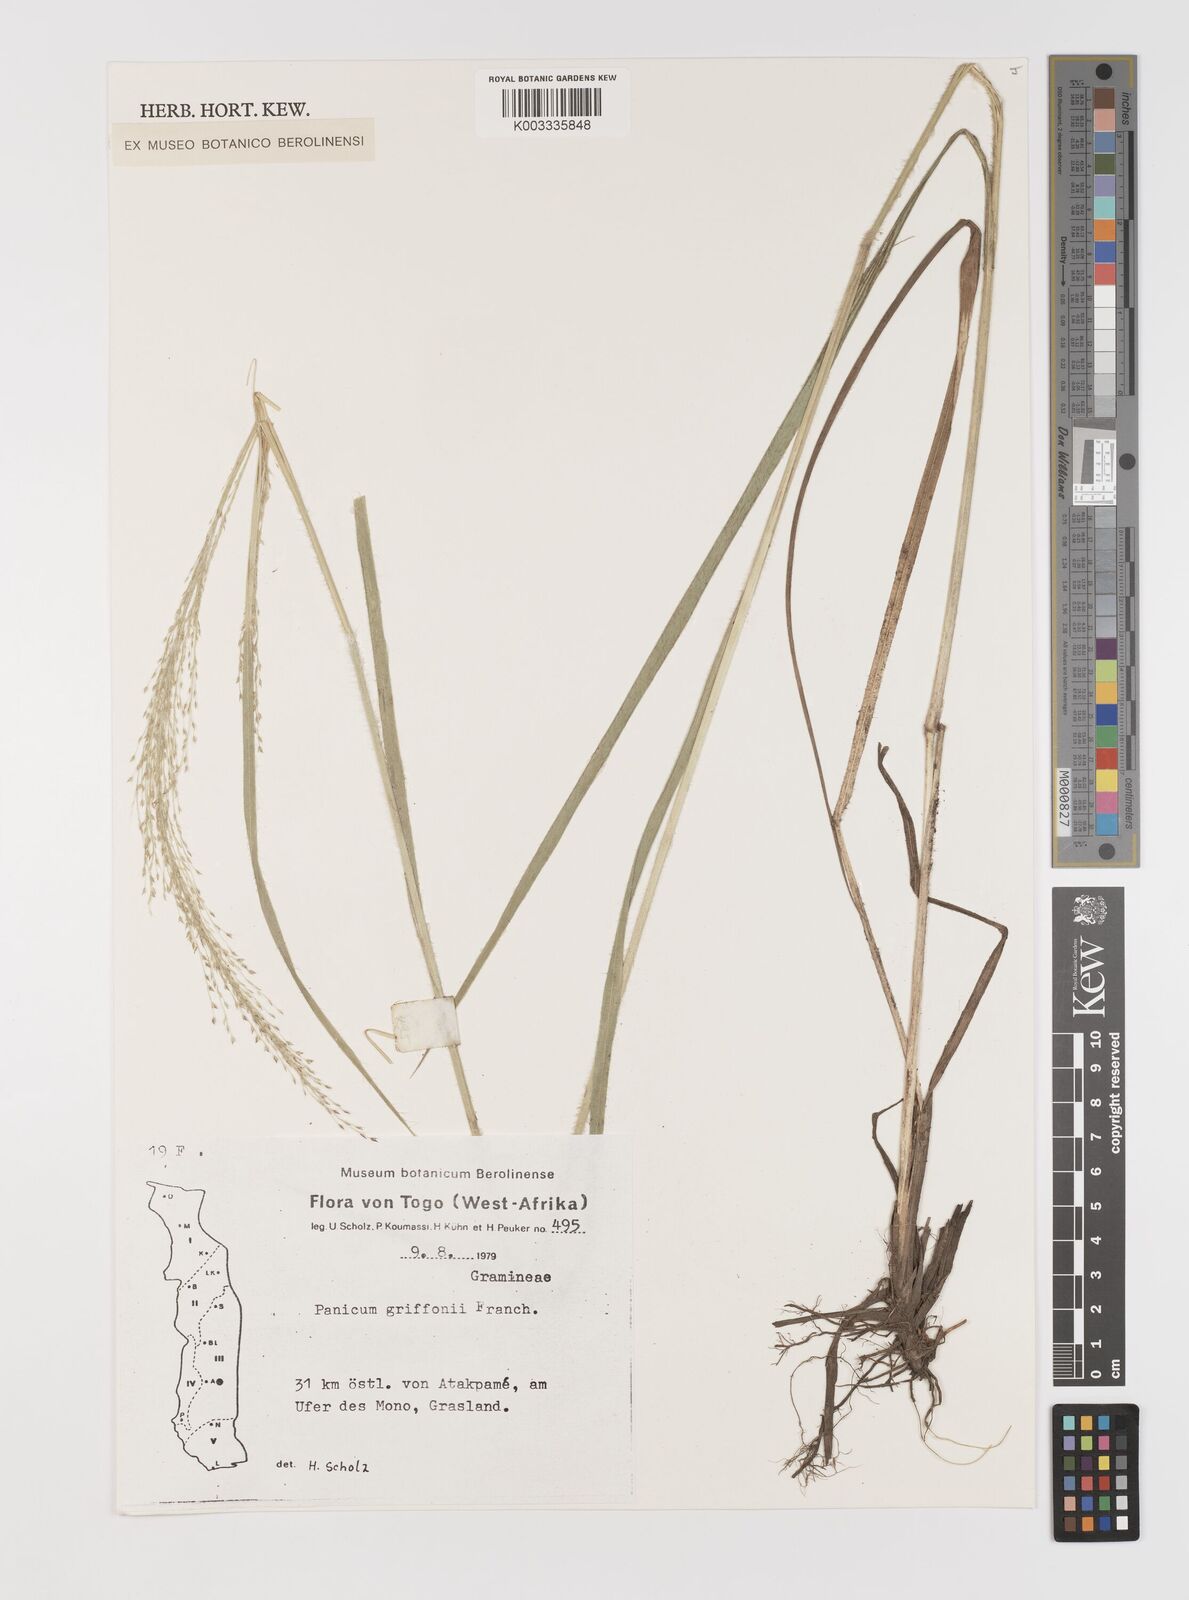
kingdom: Plantae
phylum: Tracheophyta
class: Liliopsida
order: Poales
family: Poaceae
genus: Panicum
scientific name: Panicum griffonii
